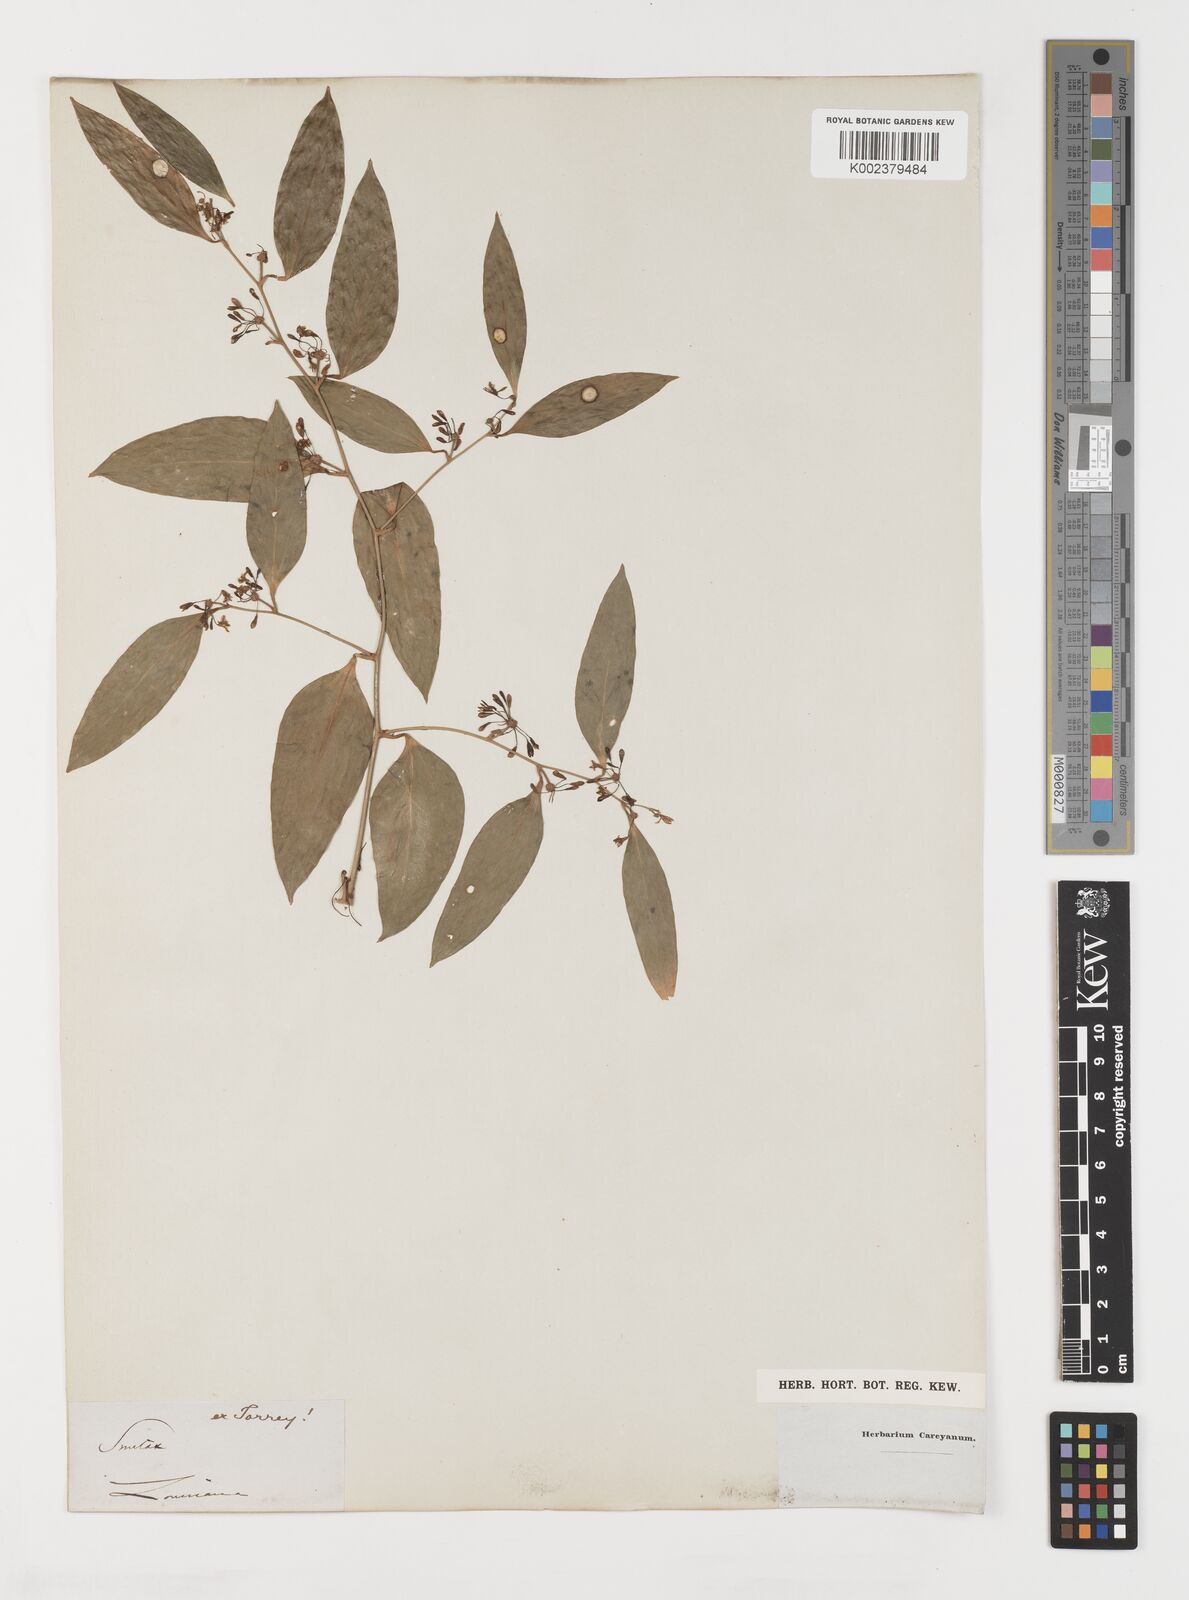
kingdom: Plantae
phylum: Tracheophyta
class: Liliopsida
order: Liliales
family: Smilacaceae
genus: Smilax
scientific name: Smilax
